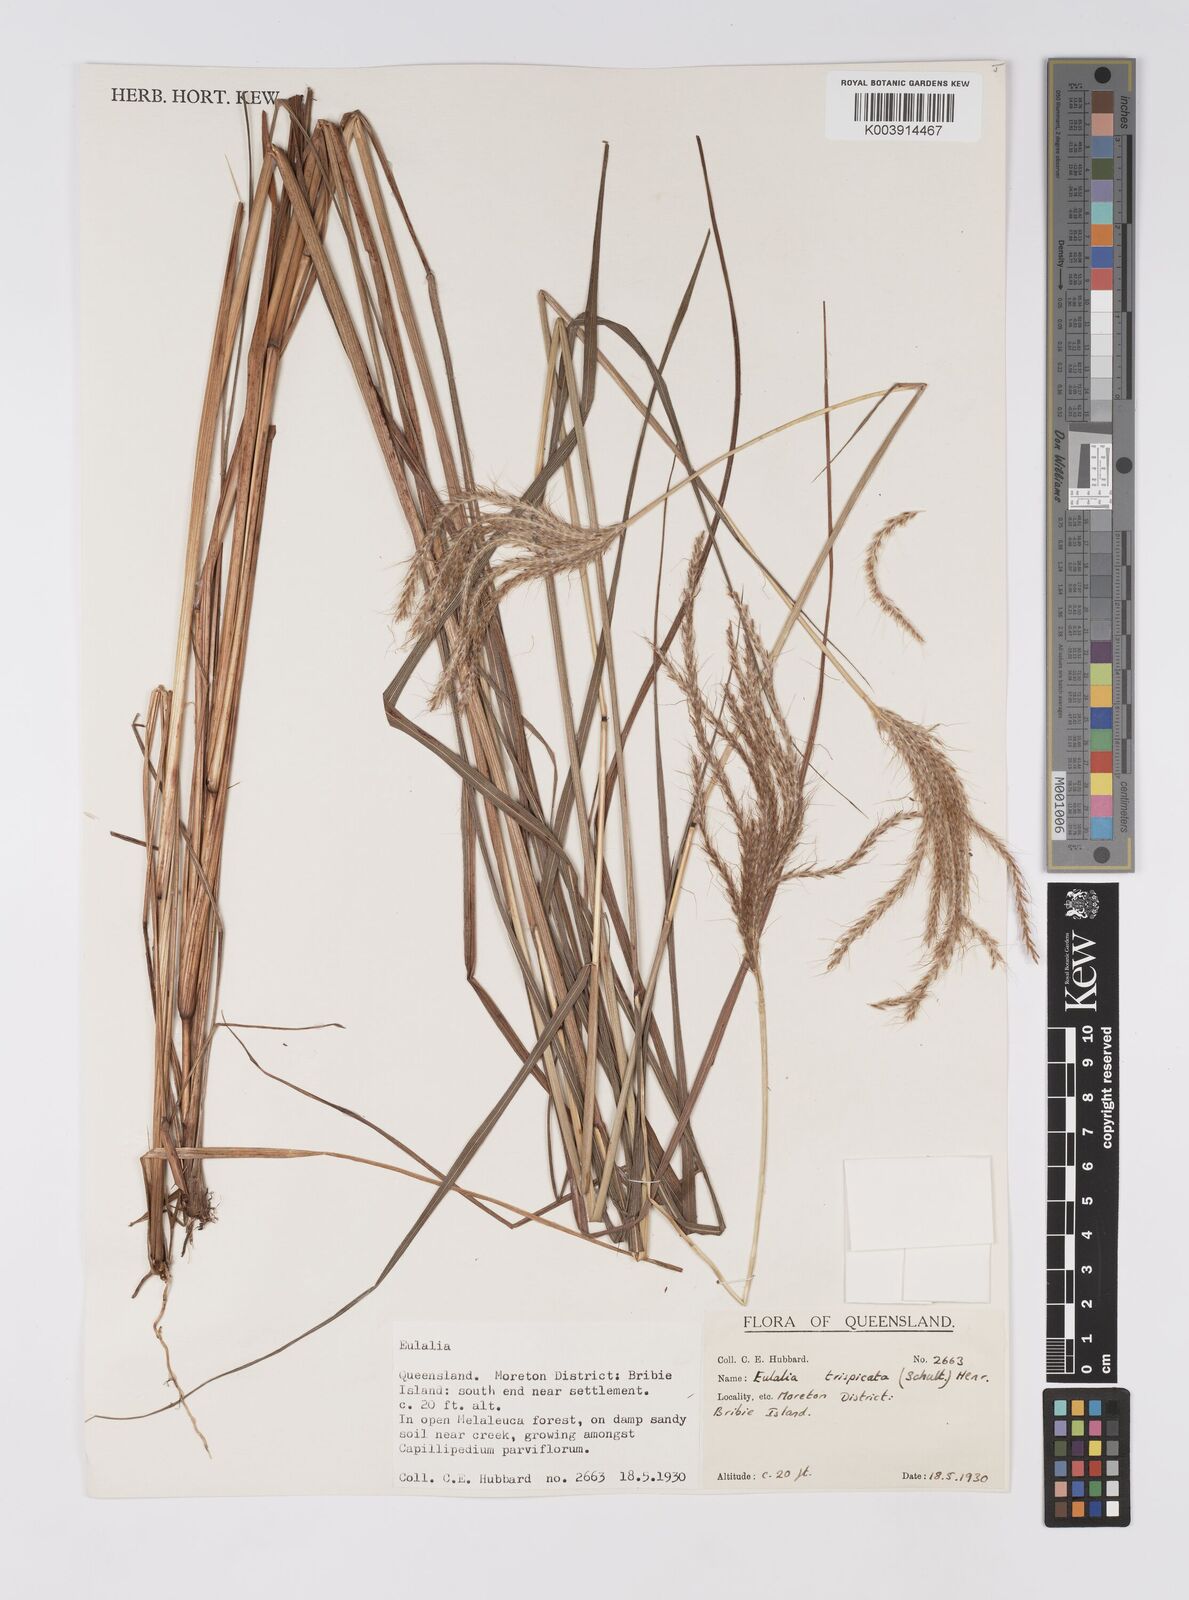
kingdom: Plantae
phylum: Tracheophyta
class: Liliopsida
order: Poales
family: Poaceae
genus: Pseudopogonatherum
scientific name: Pseudopogonatherum trispicatum
